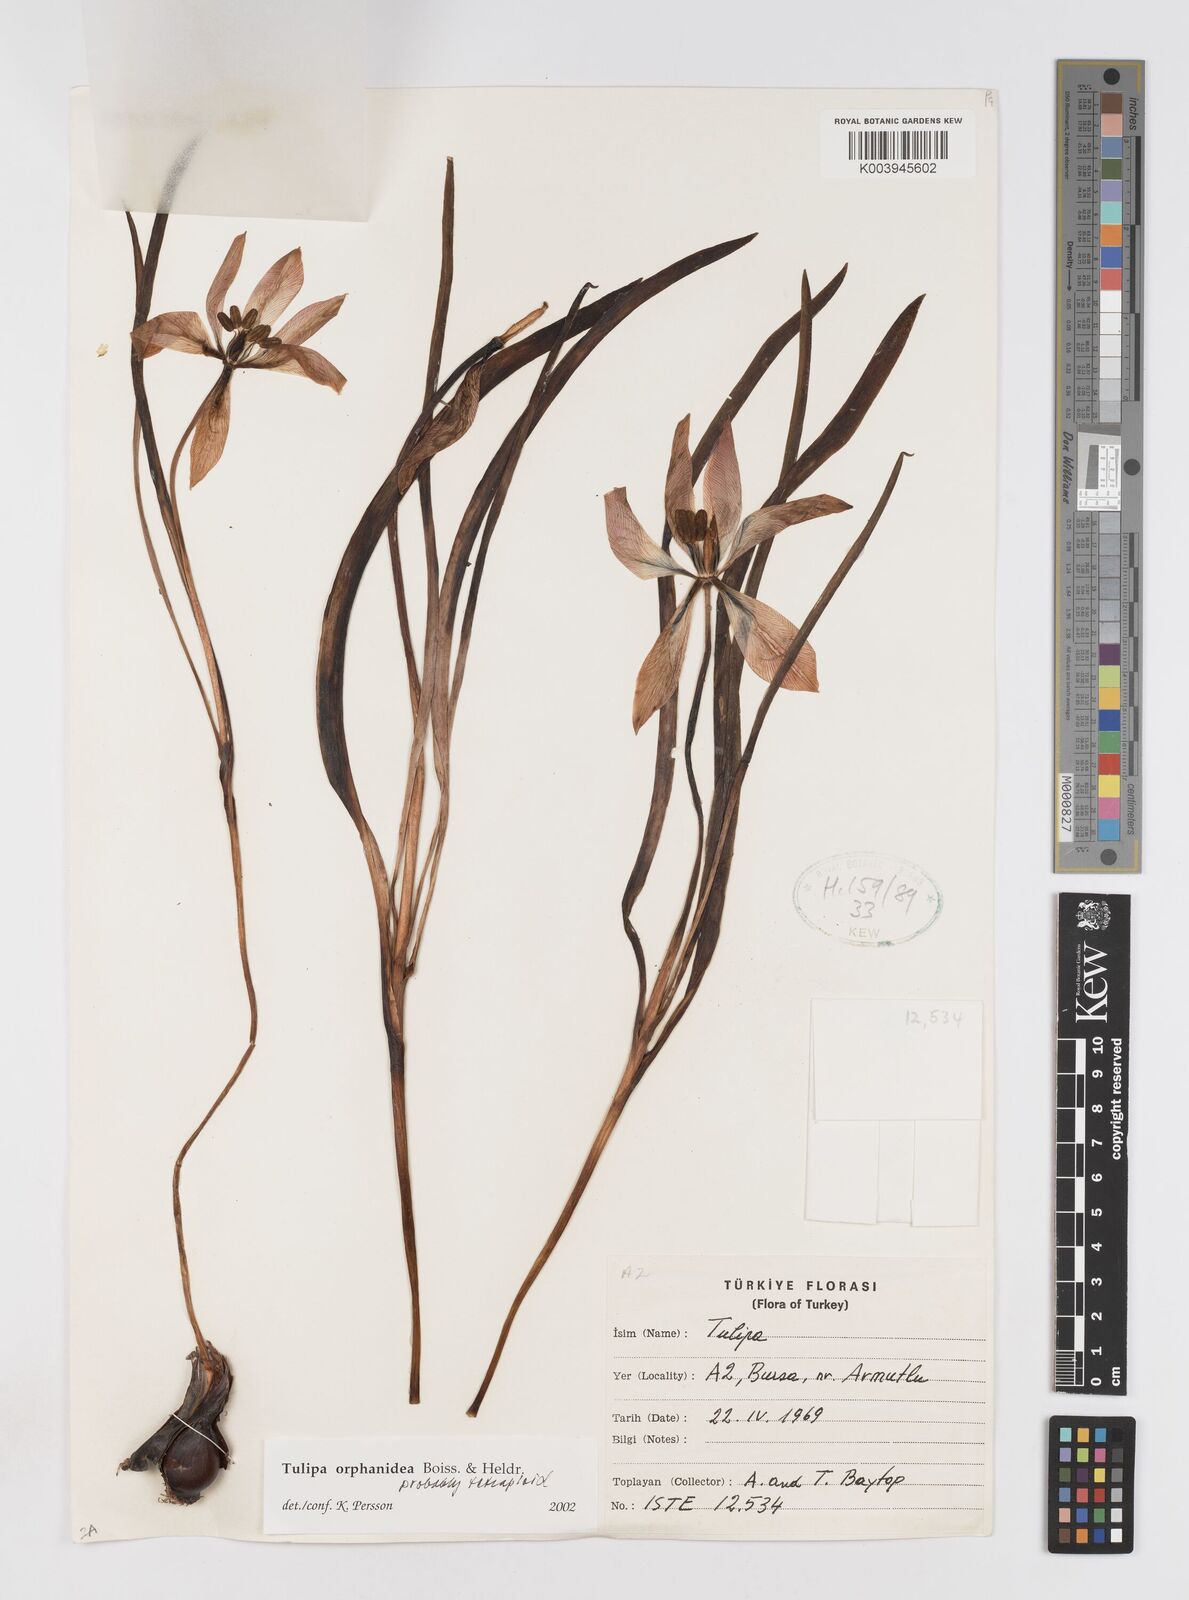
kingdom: Plantae
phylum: Tracheophyta
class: Liliopsida
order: Liliales
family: Liliaceae
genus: Tulipa
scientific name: Tulipa orphanidea
